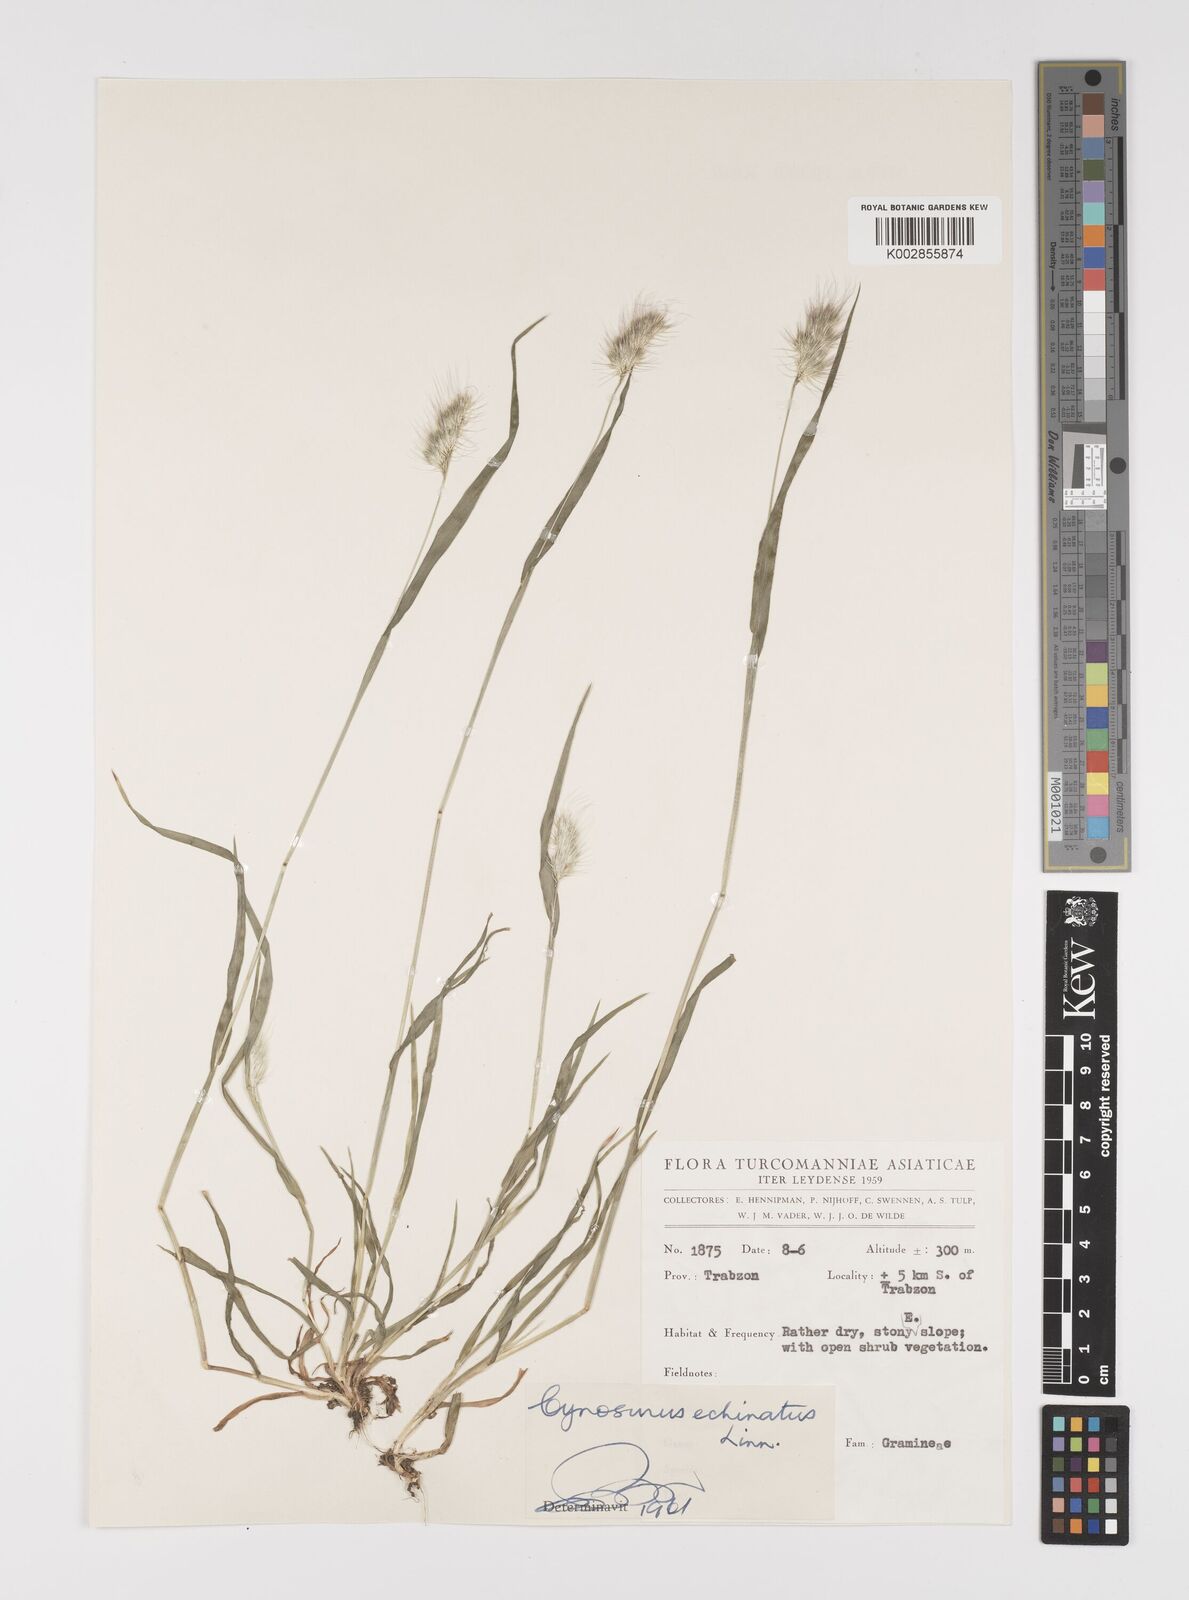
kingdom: Plantae
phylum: Tracheophyta
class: Liliopsida
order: Poales
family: Poaceae
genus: Cynosurus
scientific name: Cynosurus echinatus
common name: Rough dog's-tail
